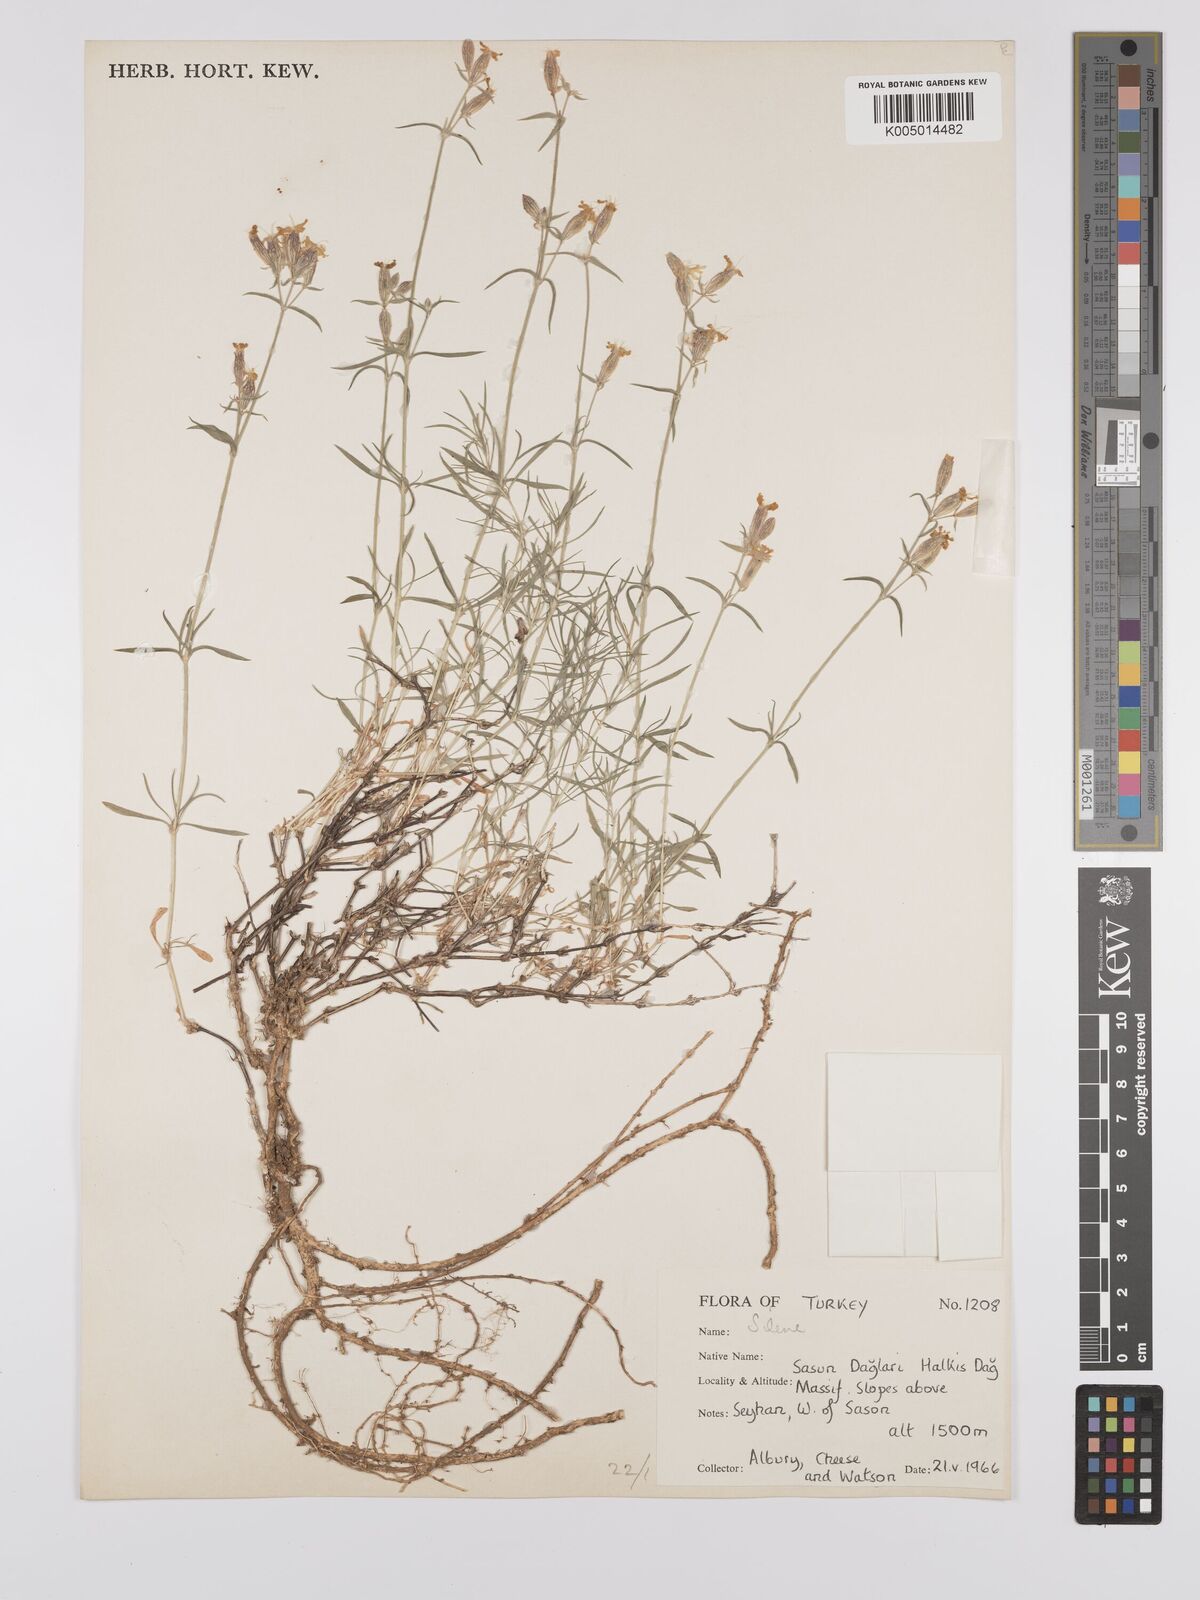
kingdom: Plantae
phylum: Tracheophyta
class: Magnoliopsida
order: Caryophyllales
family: Caryophyllaceae
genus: Silene
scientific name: Silene
